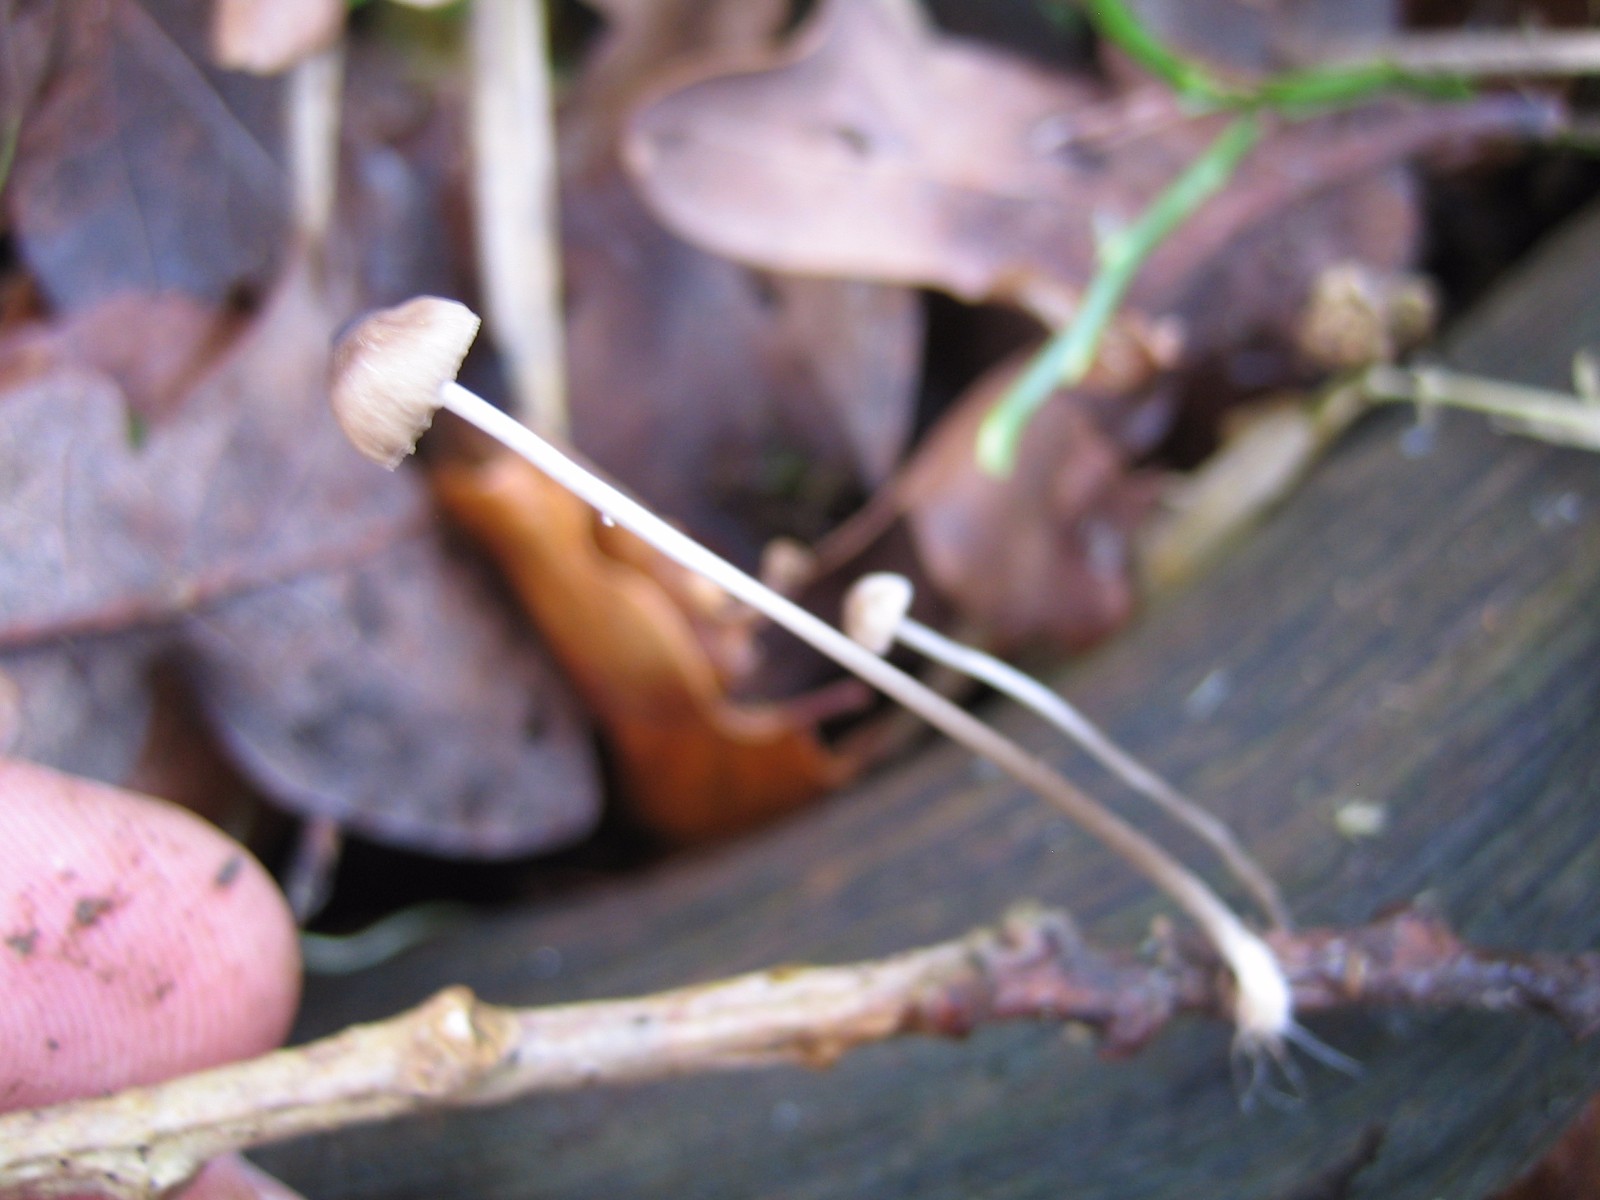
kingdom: Fungi
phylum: Basidiomycota
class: Agaricomycetes
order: Agaricales
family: Mycenaceae
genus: Mycena
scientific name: Mycena vitilis
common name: blankstokket huesvamp
